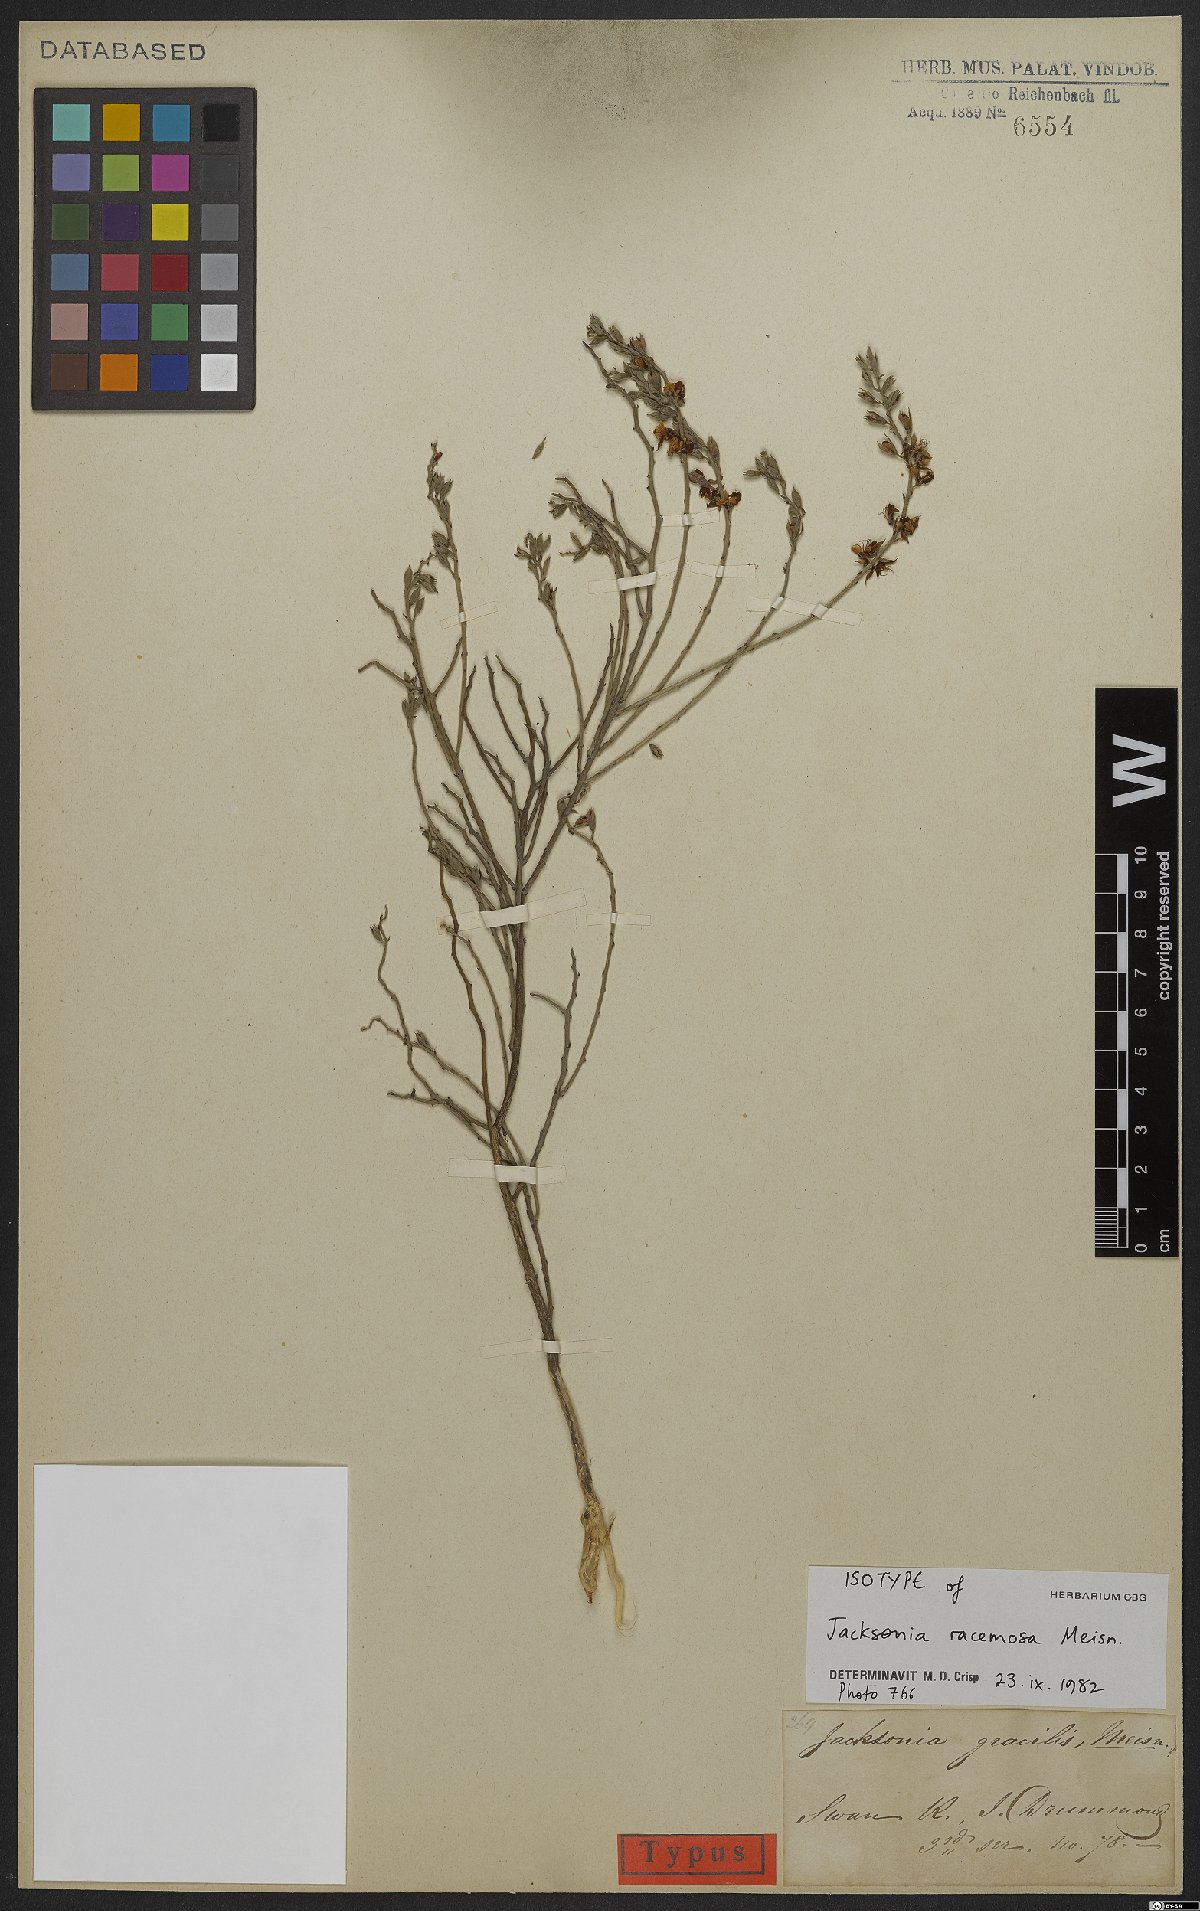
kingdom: Plantae
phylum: Tracheophyta
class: Magnoliopsida
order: Fabales
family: Fabaceae
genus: Jacksonia
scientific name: Jacksonia racemosa
